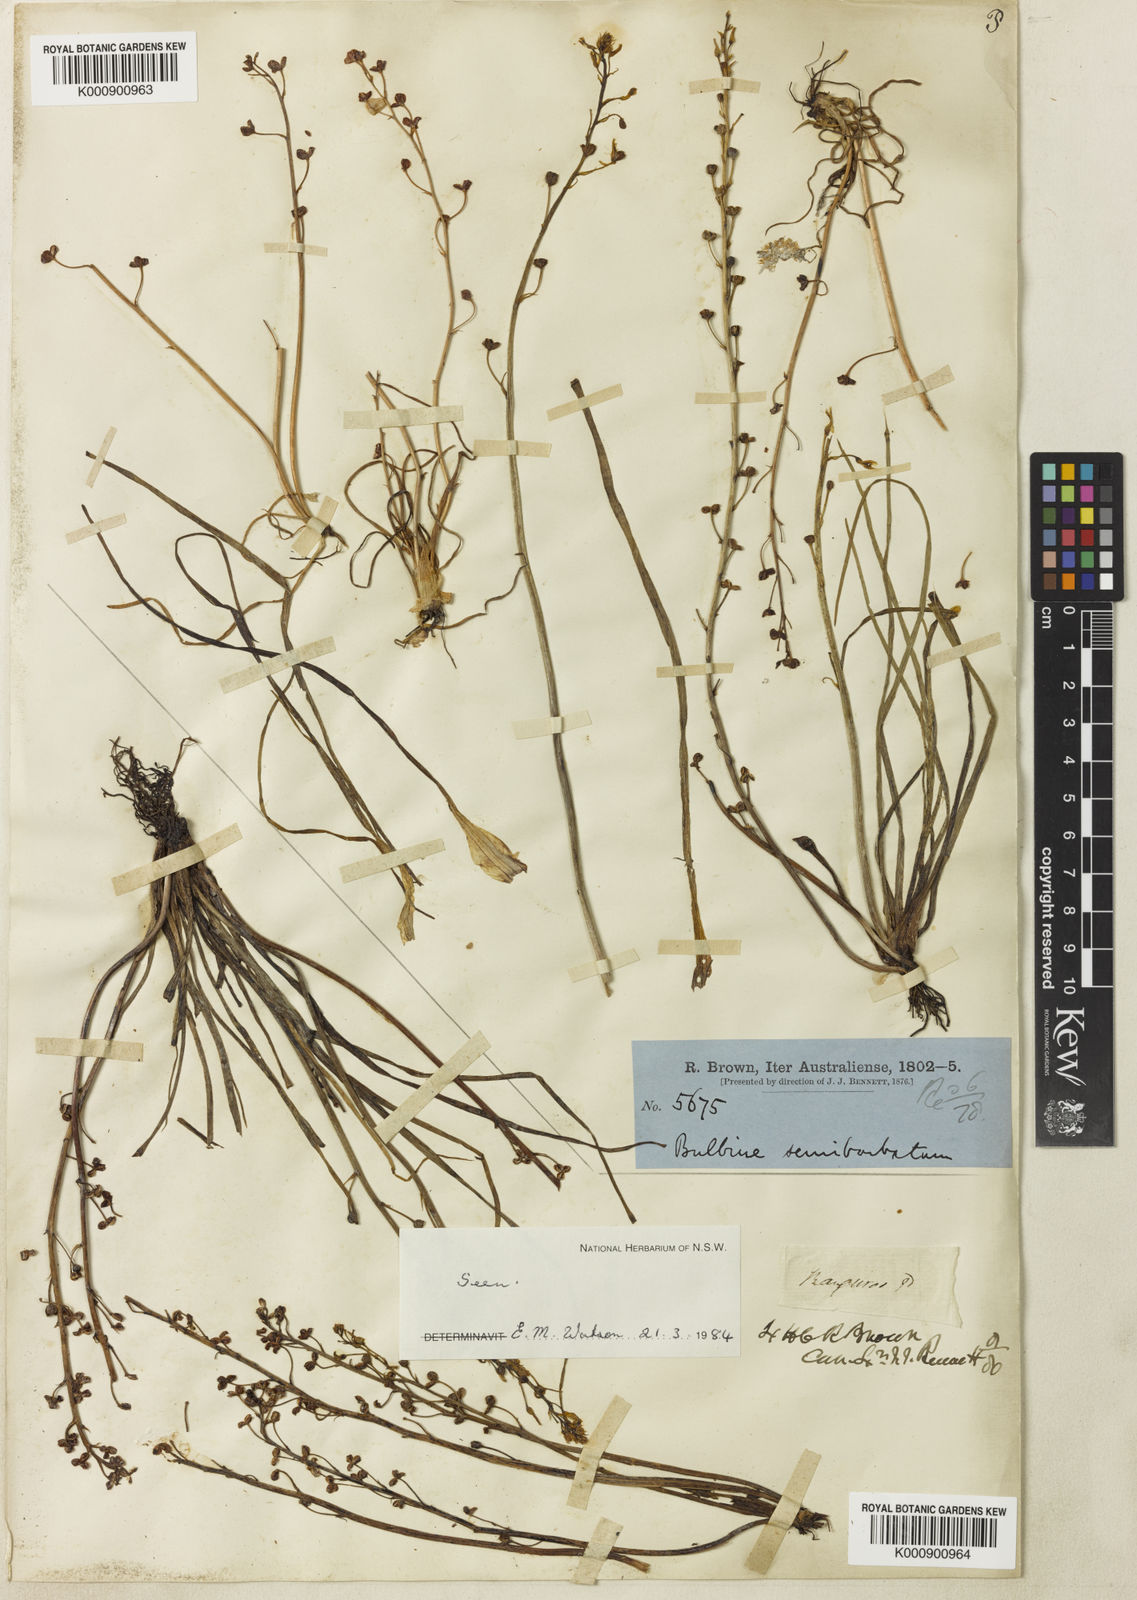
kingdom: Plantae
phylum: Tracheophyta
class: Liliopsida
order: Asparagales
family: Asphodelaceae
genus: Bulbine
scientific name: Bulbine semibarbata
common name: Leek lily
